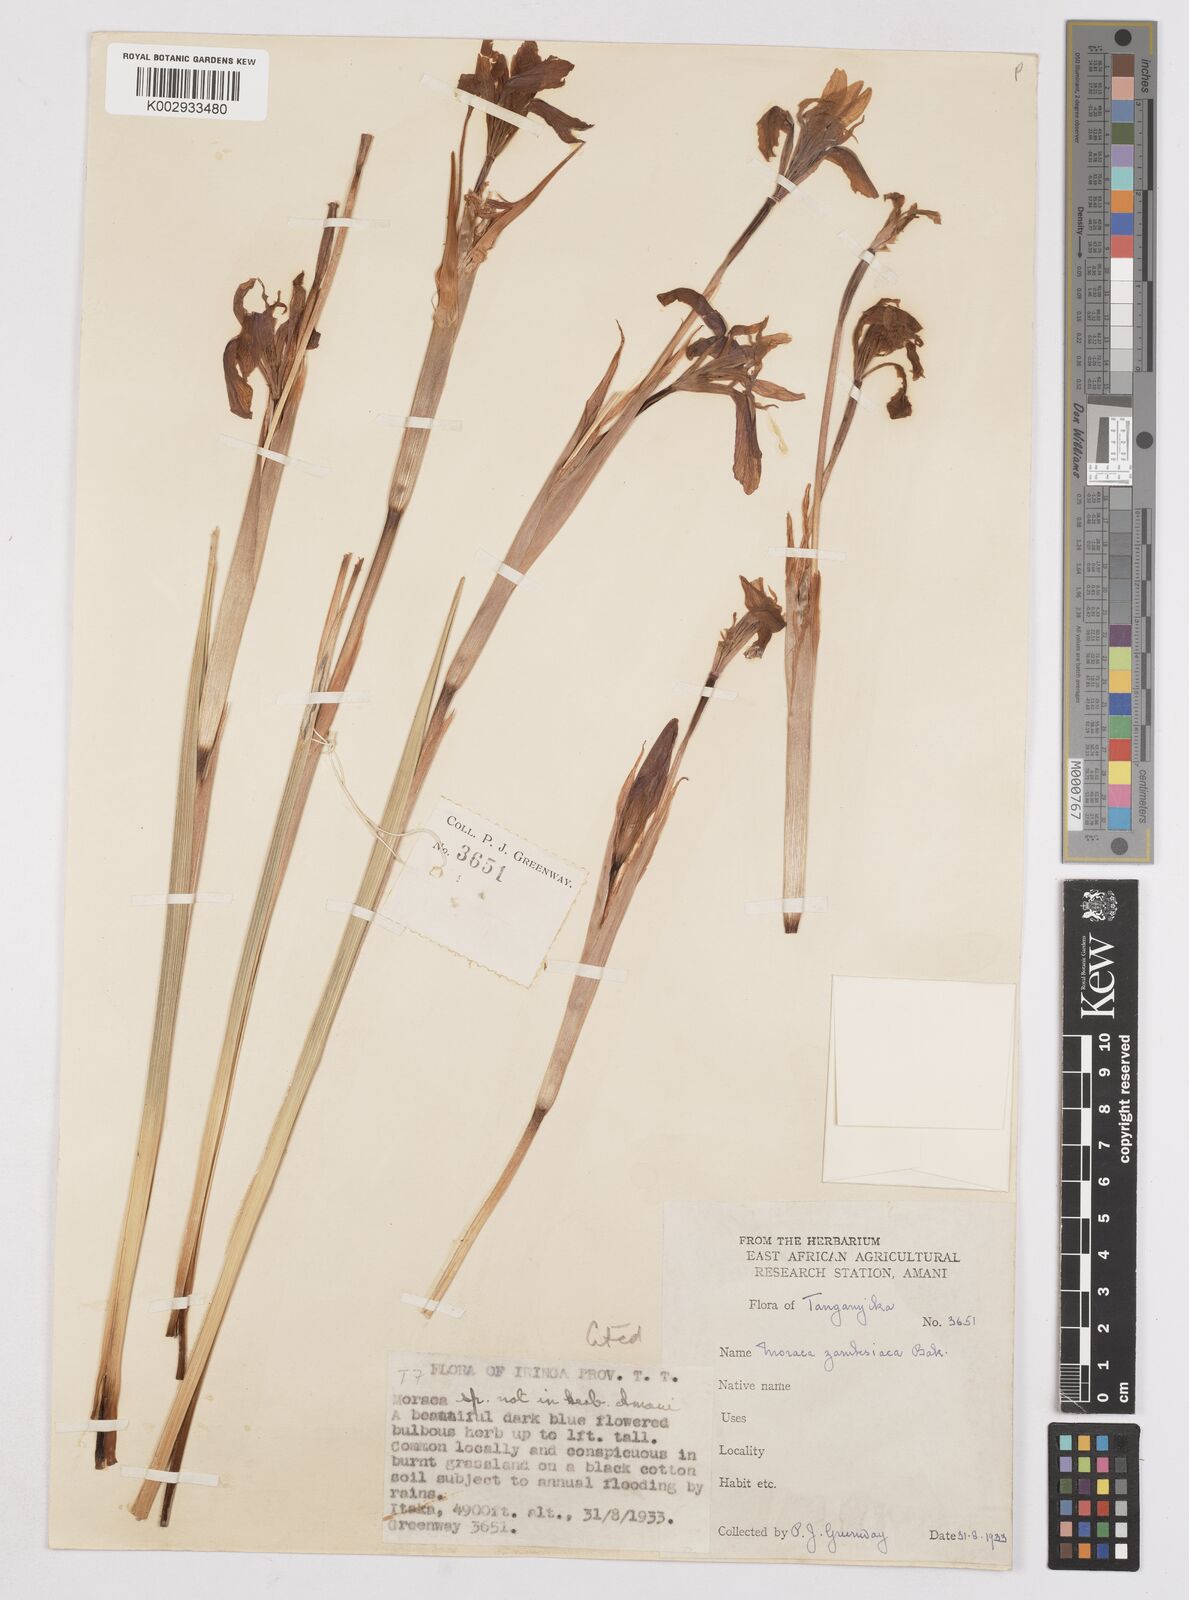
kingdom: Plantae
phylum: Tracheophyta
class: Liliopsida
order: Asparagales
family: Iridaceae
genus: Moraea
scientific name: Moraea schimperi
